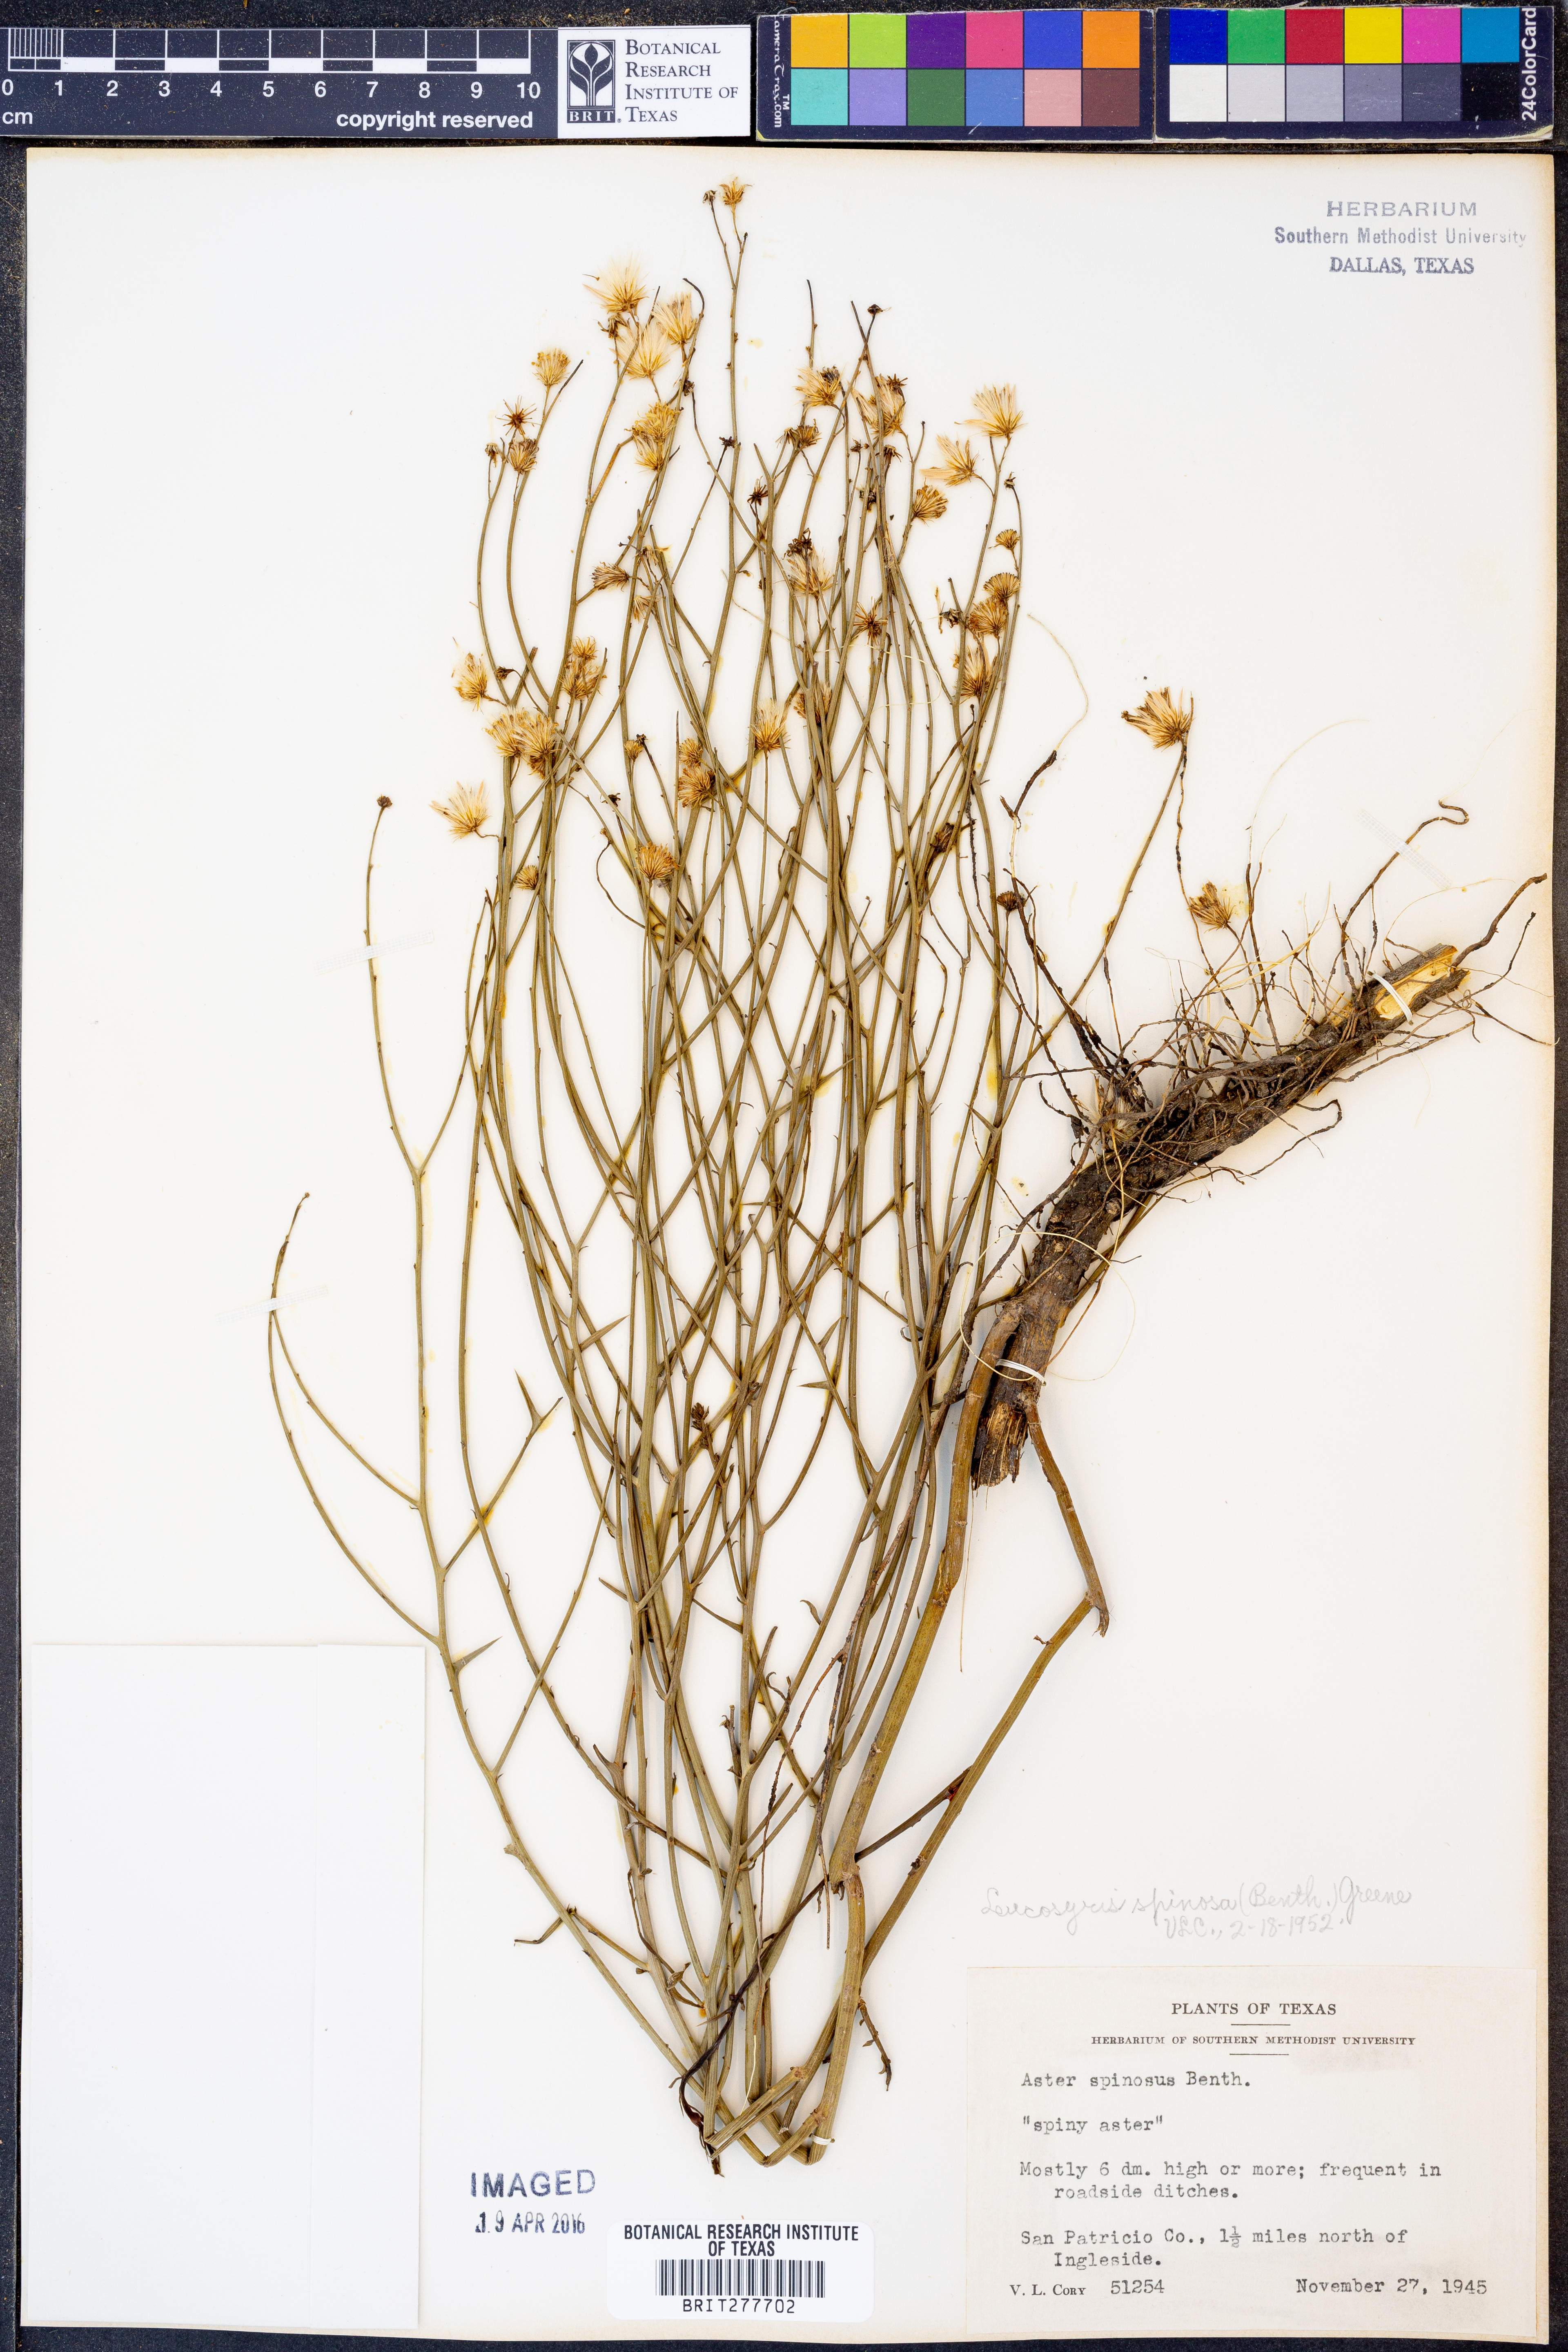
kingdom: Plantae
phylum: Tracheophyta
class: Magnoliopsida
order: Asterales
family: Asteraceae
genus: Chloracantha
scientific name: Chloracantha spinosa
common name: Mexican devilweed
